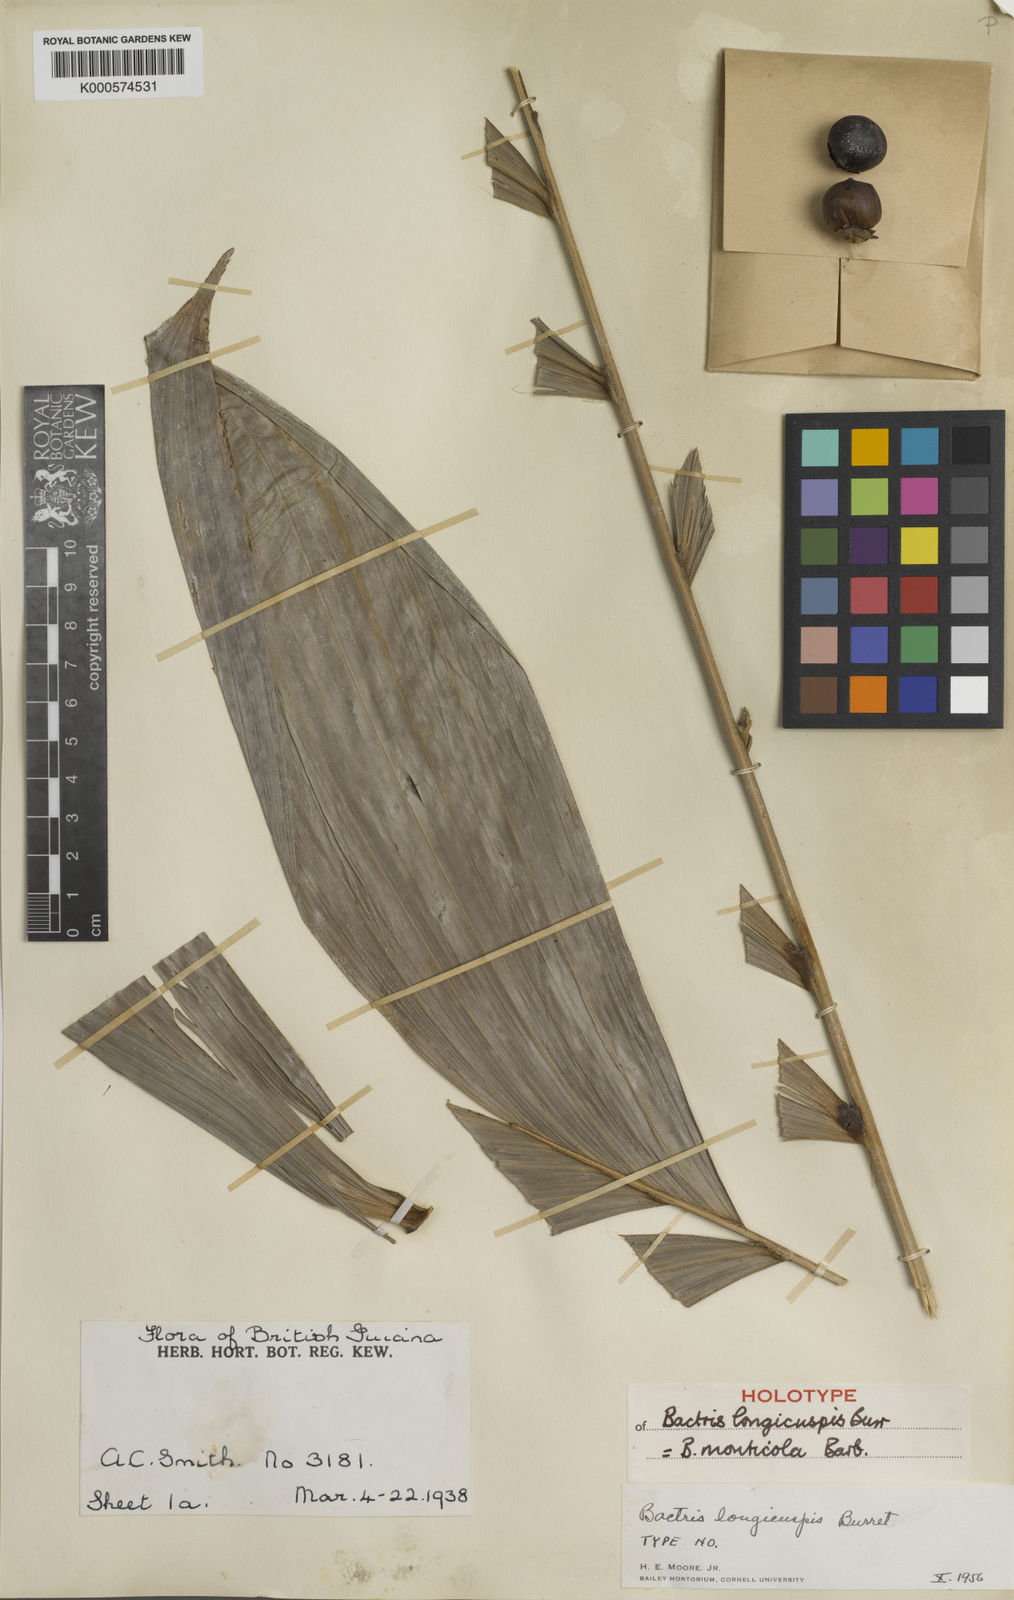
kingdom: Plantae
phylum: Tracheophyta
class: Liliopsida
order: Arecales
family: Arecaceae
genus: Bactris
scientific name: Bactris maraja
